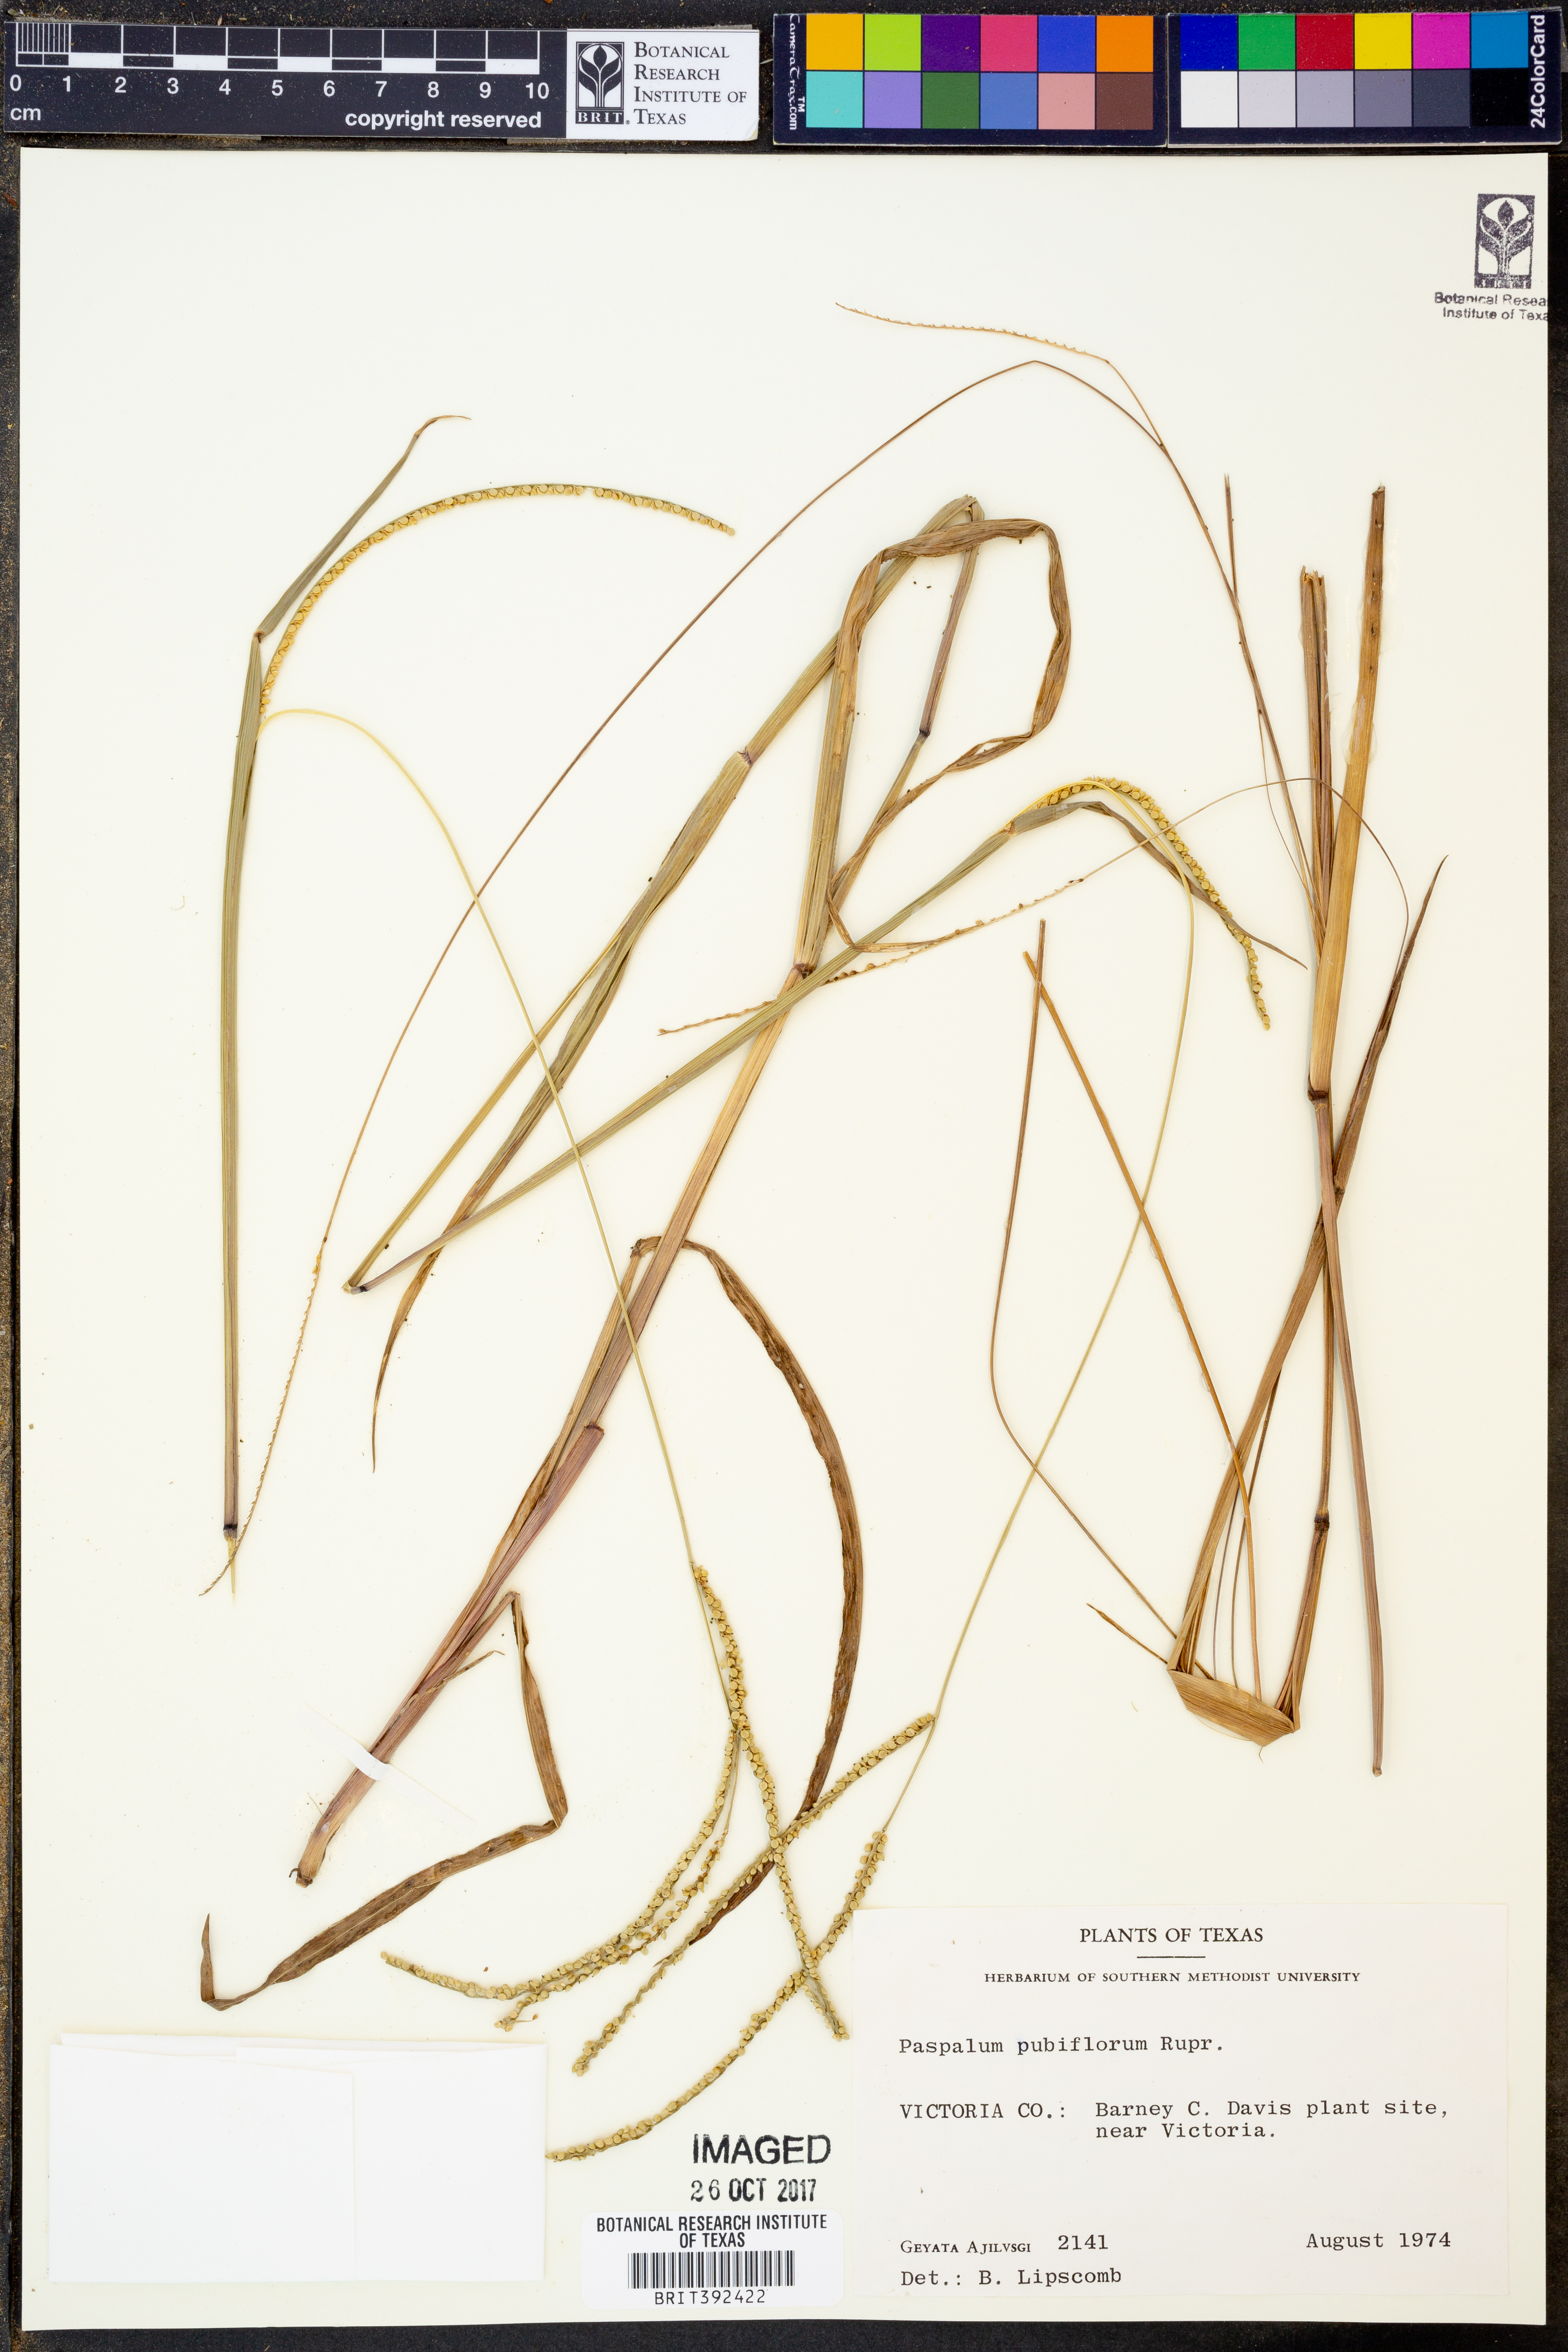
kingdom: Plantae
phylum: Tracheophyta
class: Liliopsida
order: Poales
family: Poaceae
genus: Paspalum
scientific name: Paspalum pubiflorum
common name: Hairy-seed paspalum
